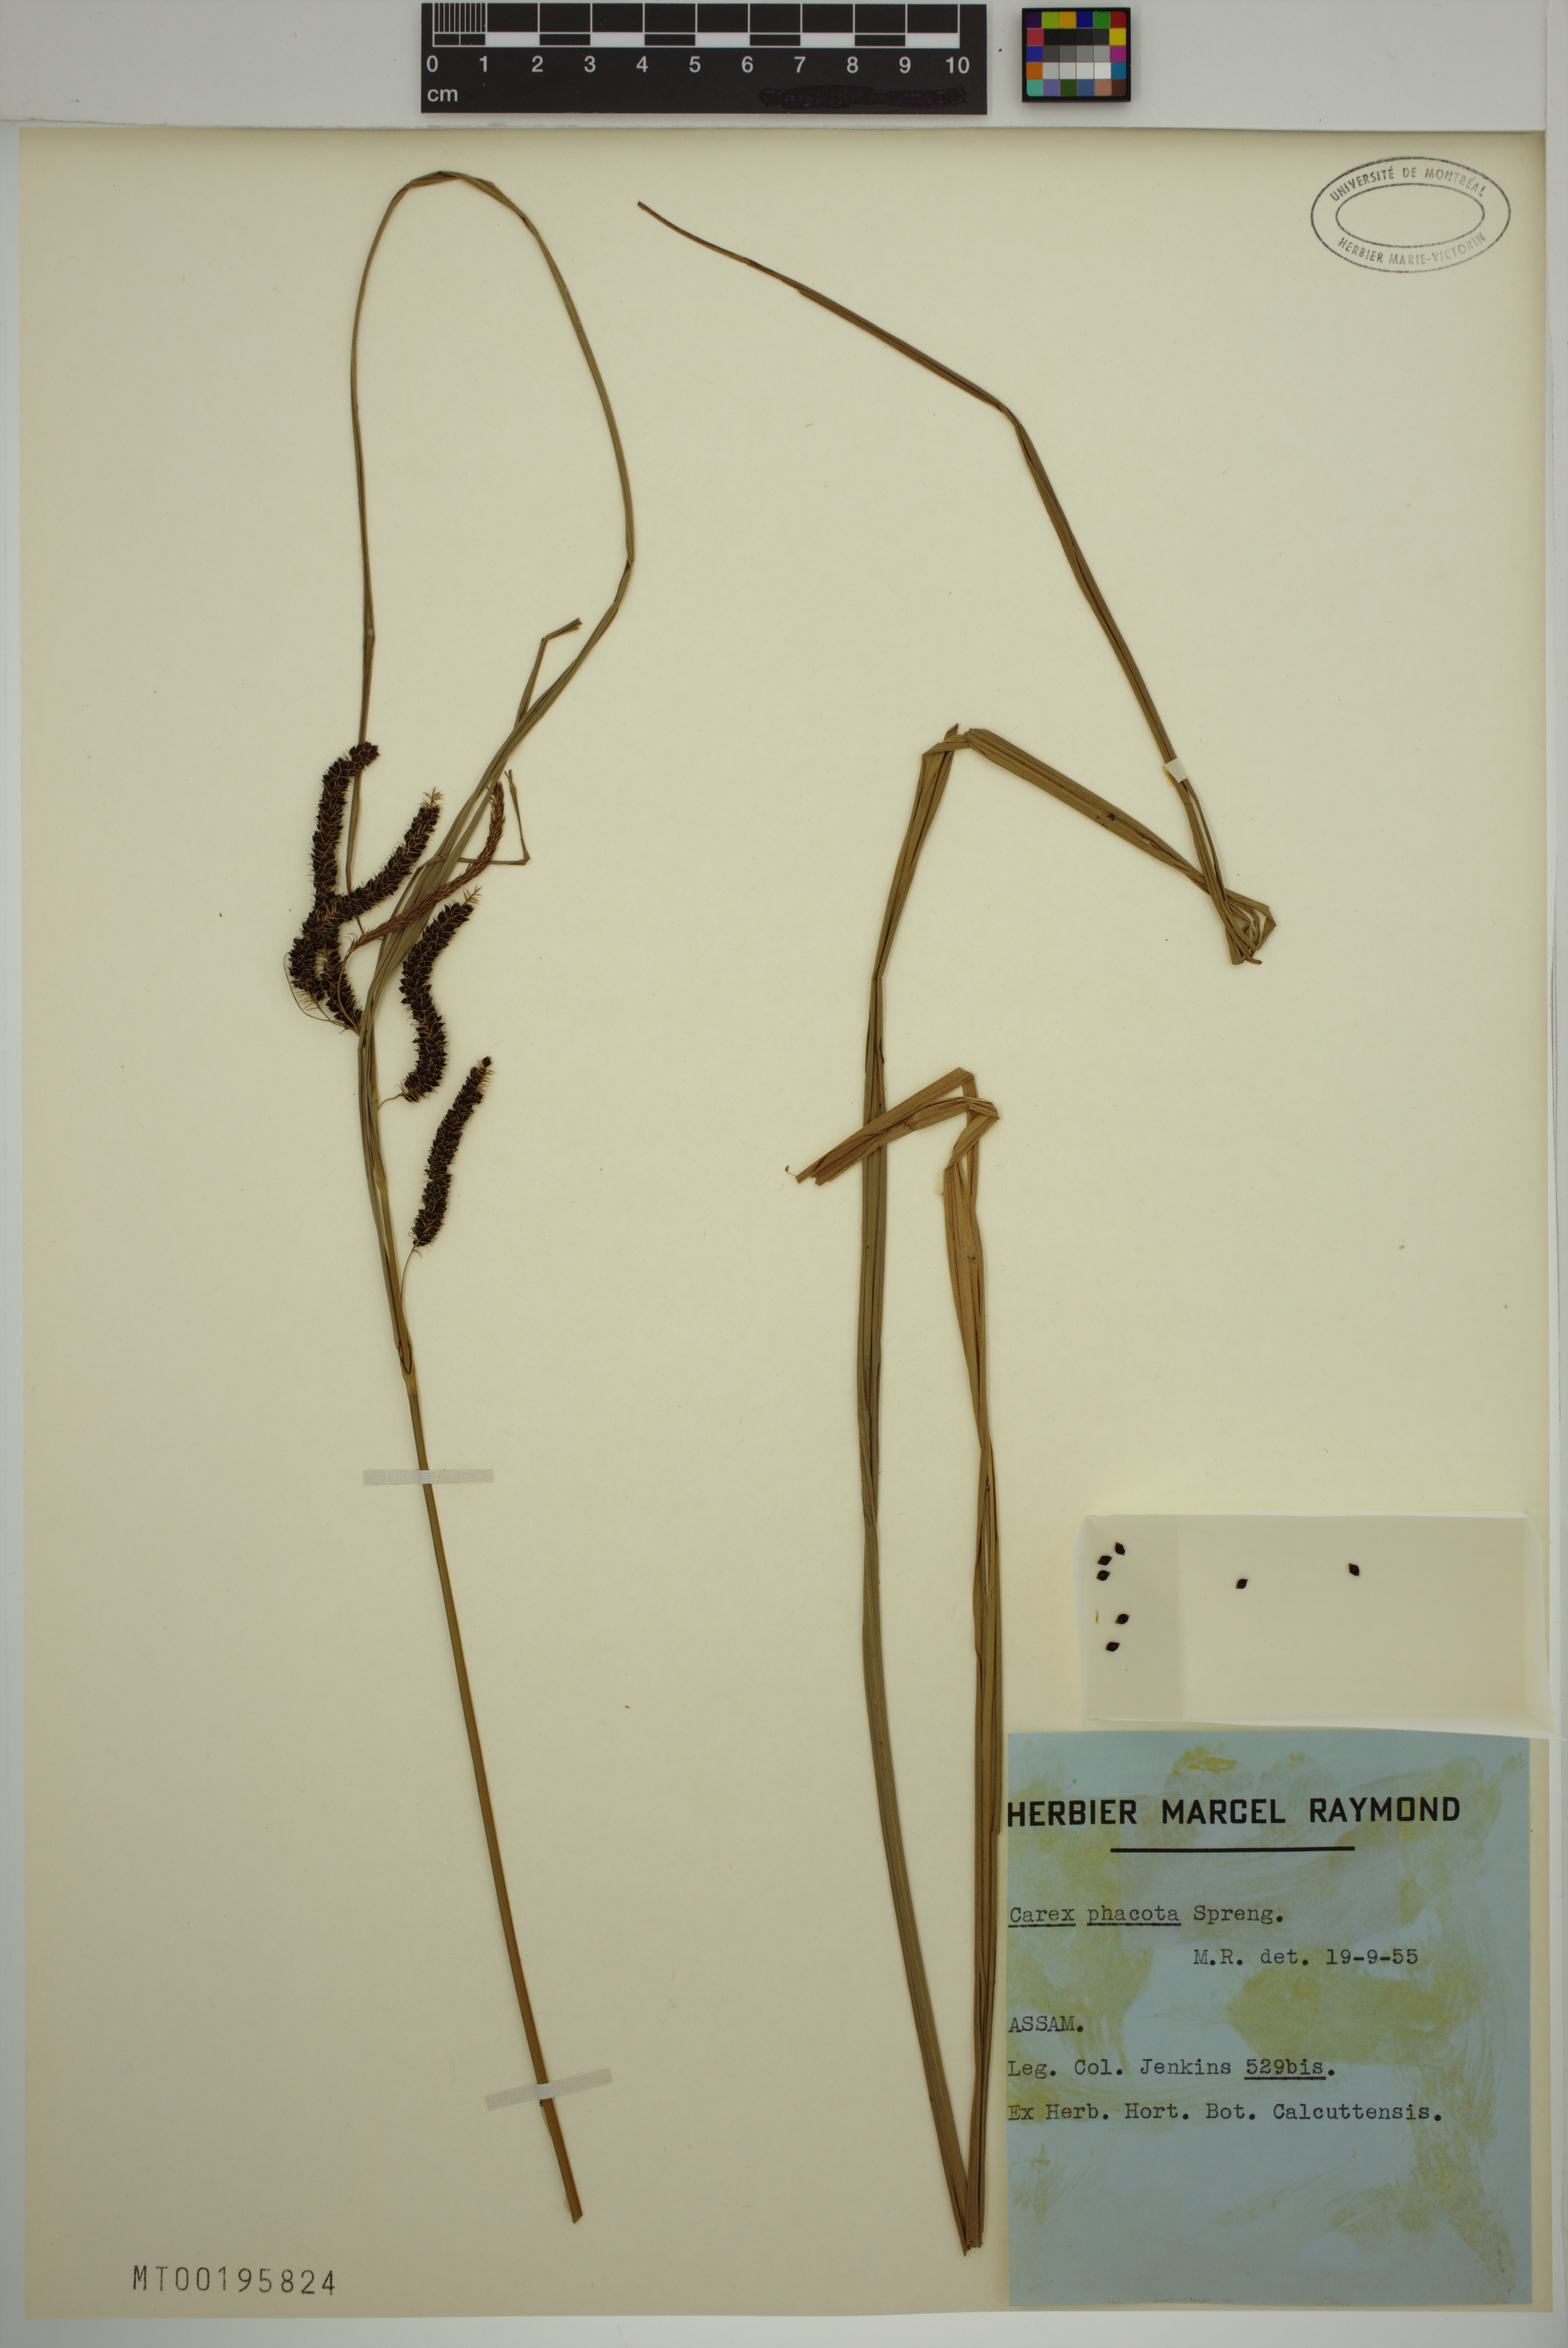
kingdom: Plantae
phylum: Tracheophyta
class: Liliopsida
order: Poales
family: Cyperaceae
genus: Carex
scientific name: Carex phacota
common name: Lakeshore sedge
